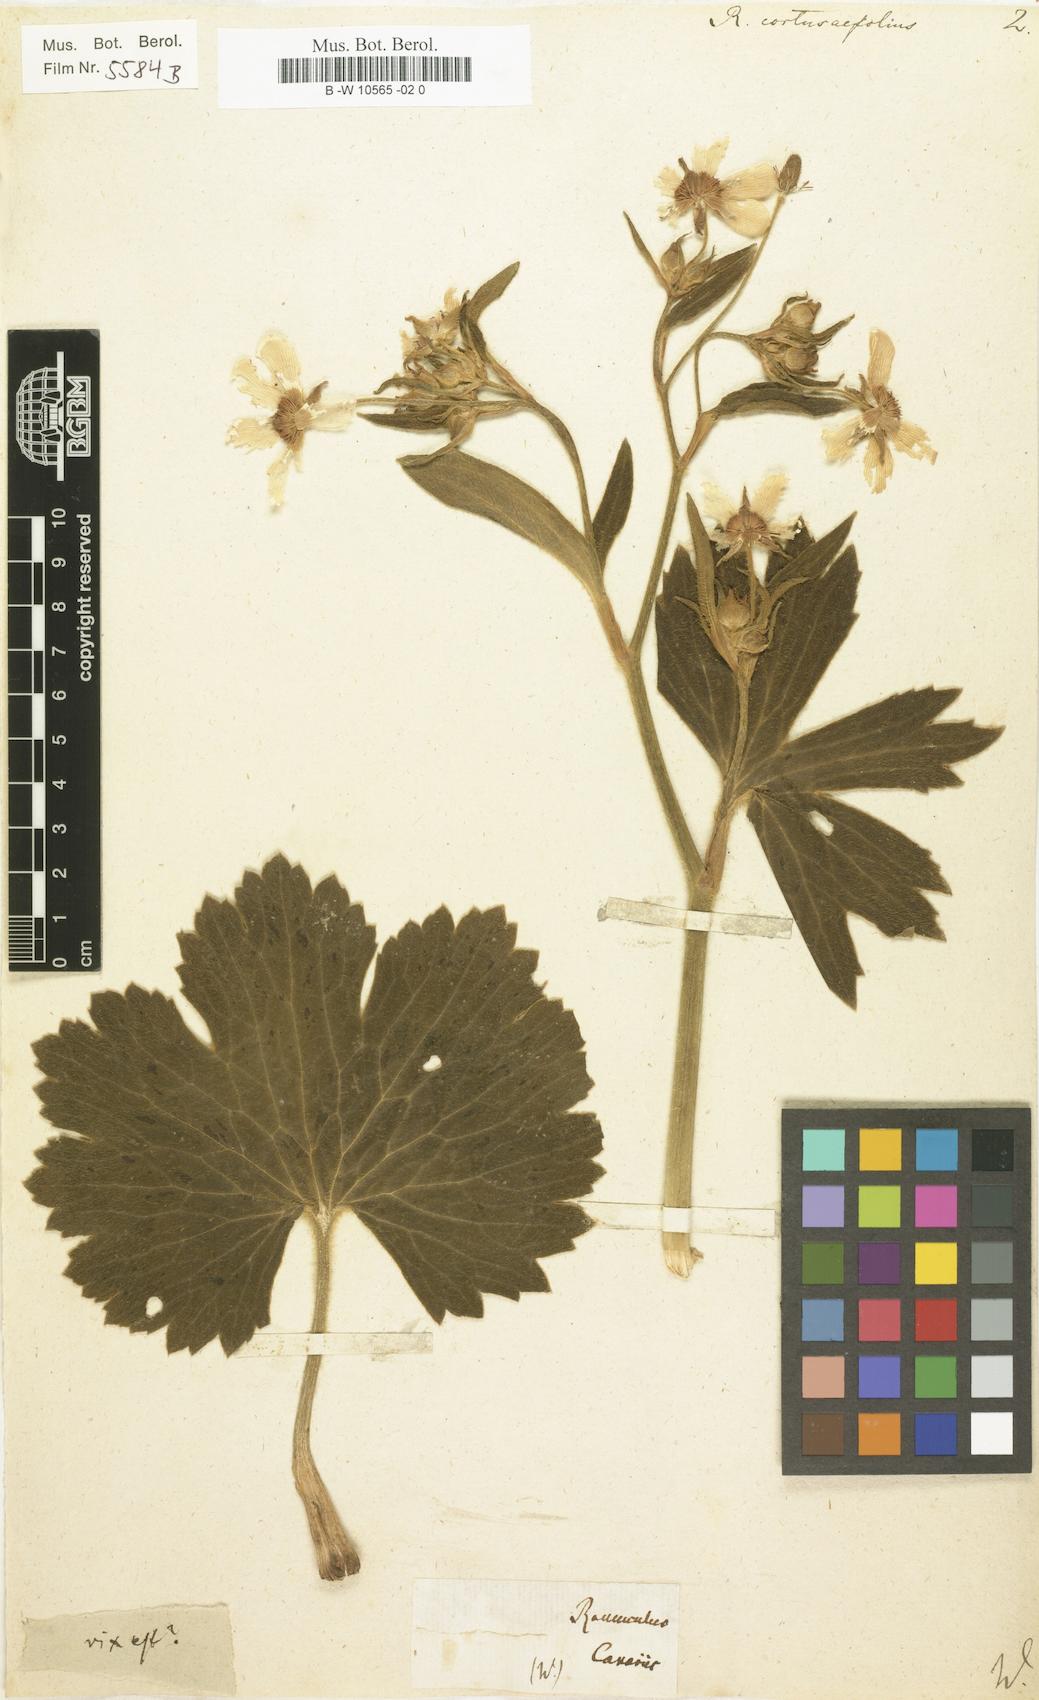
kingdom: Plantae
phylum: Tracheophyta
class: Magnoliopsida
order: Ranunculales
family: Ranunculaceae
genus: Ranunculus
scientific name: Ranunculus cortusifolius
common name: Azores buttercup
